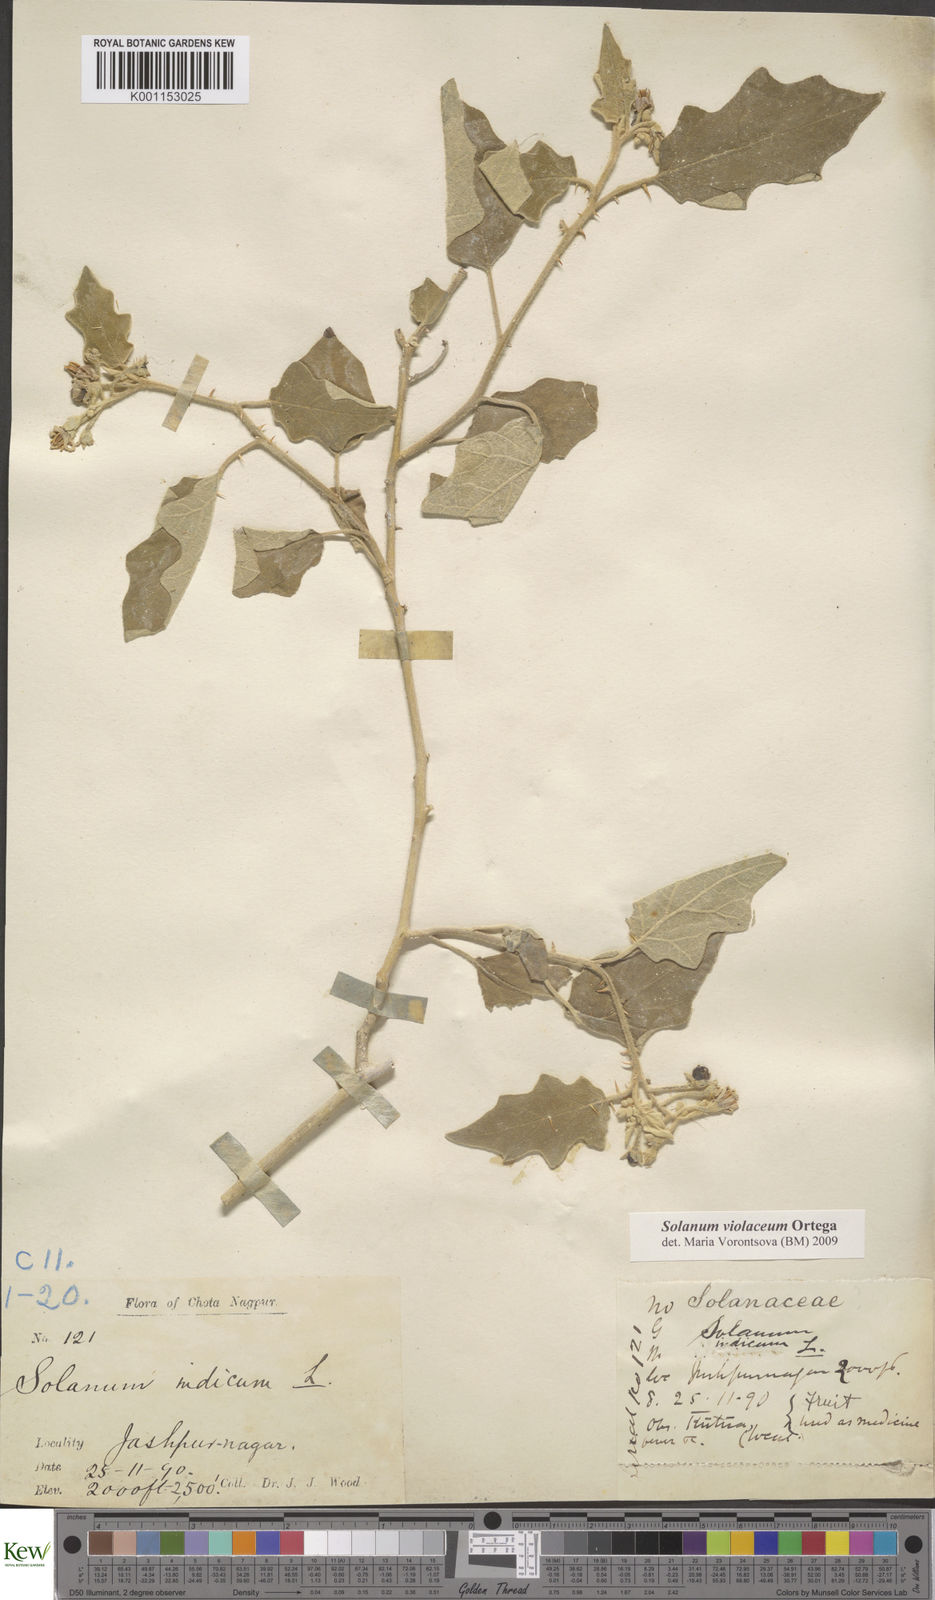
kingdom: Plantae
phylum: Tracheophyta
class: Magnoliopsida
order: Solanales
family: Solanaceae
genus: Solanum
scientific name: Solanum violaceum
